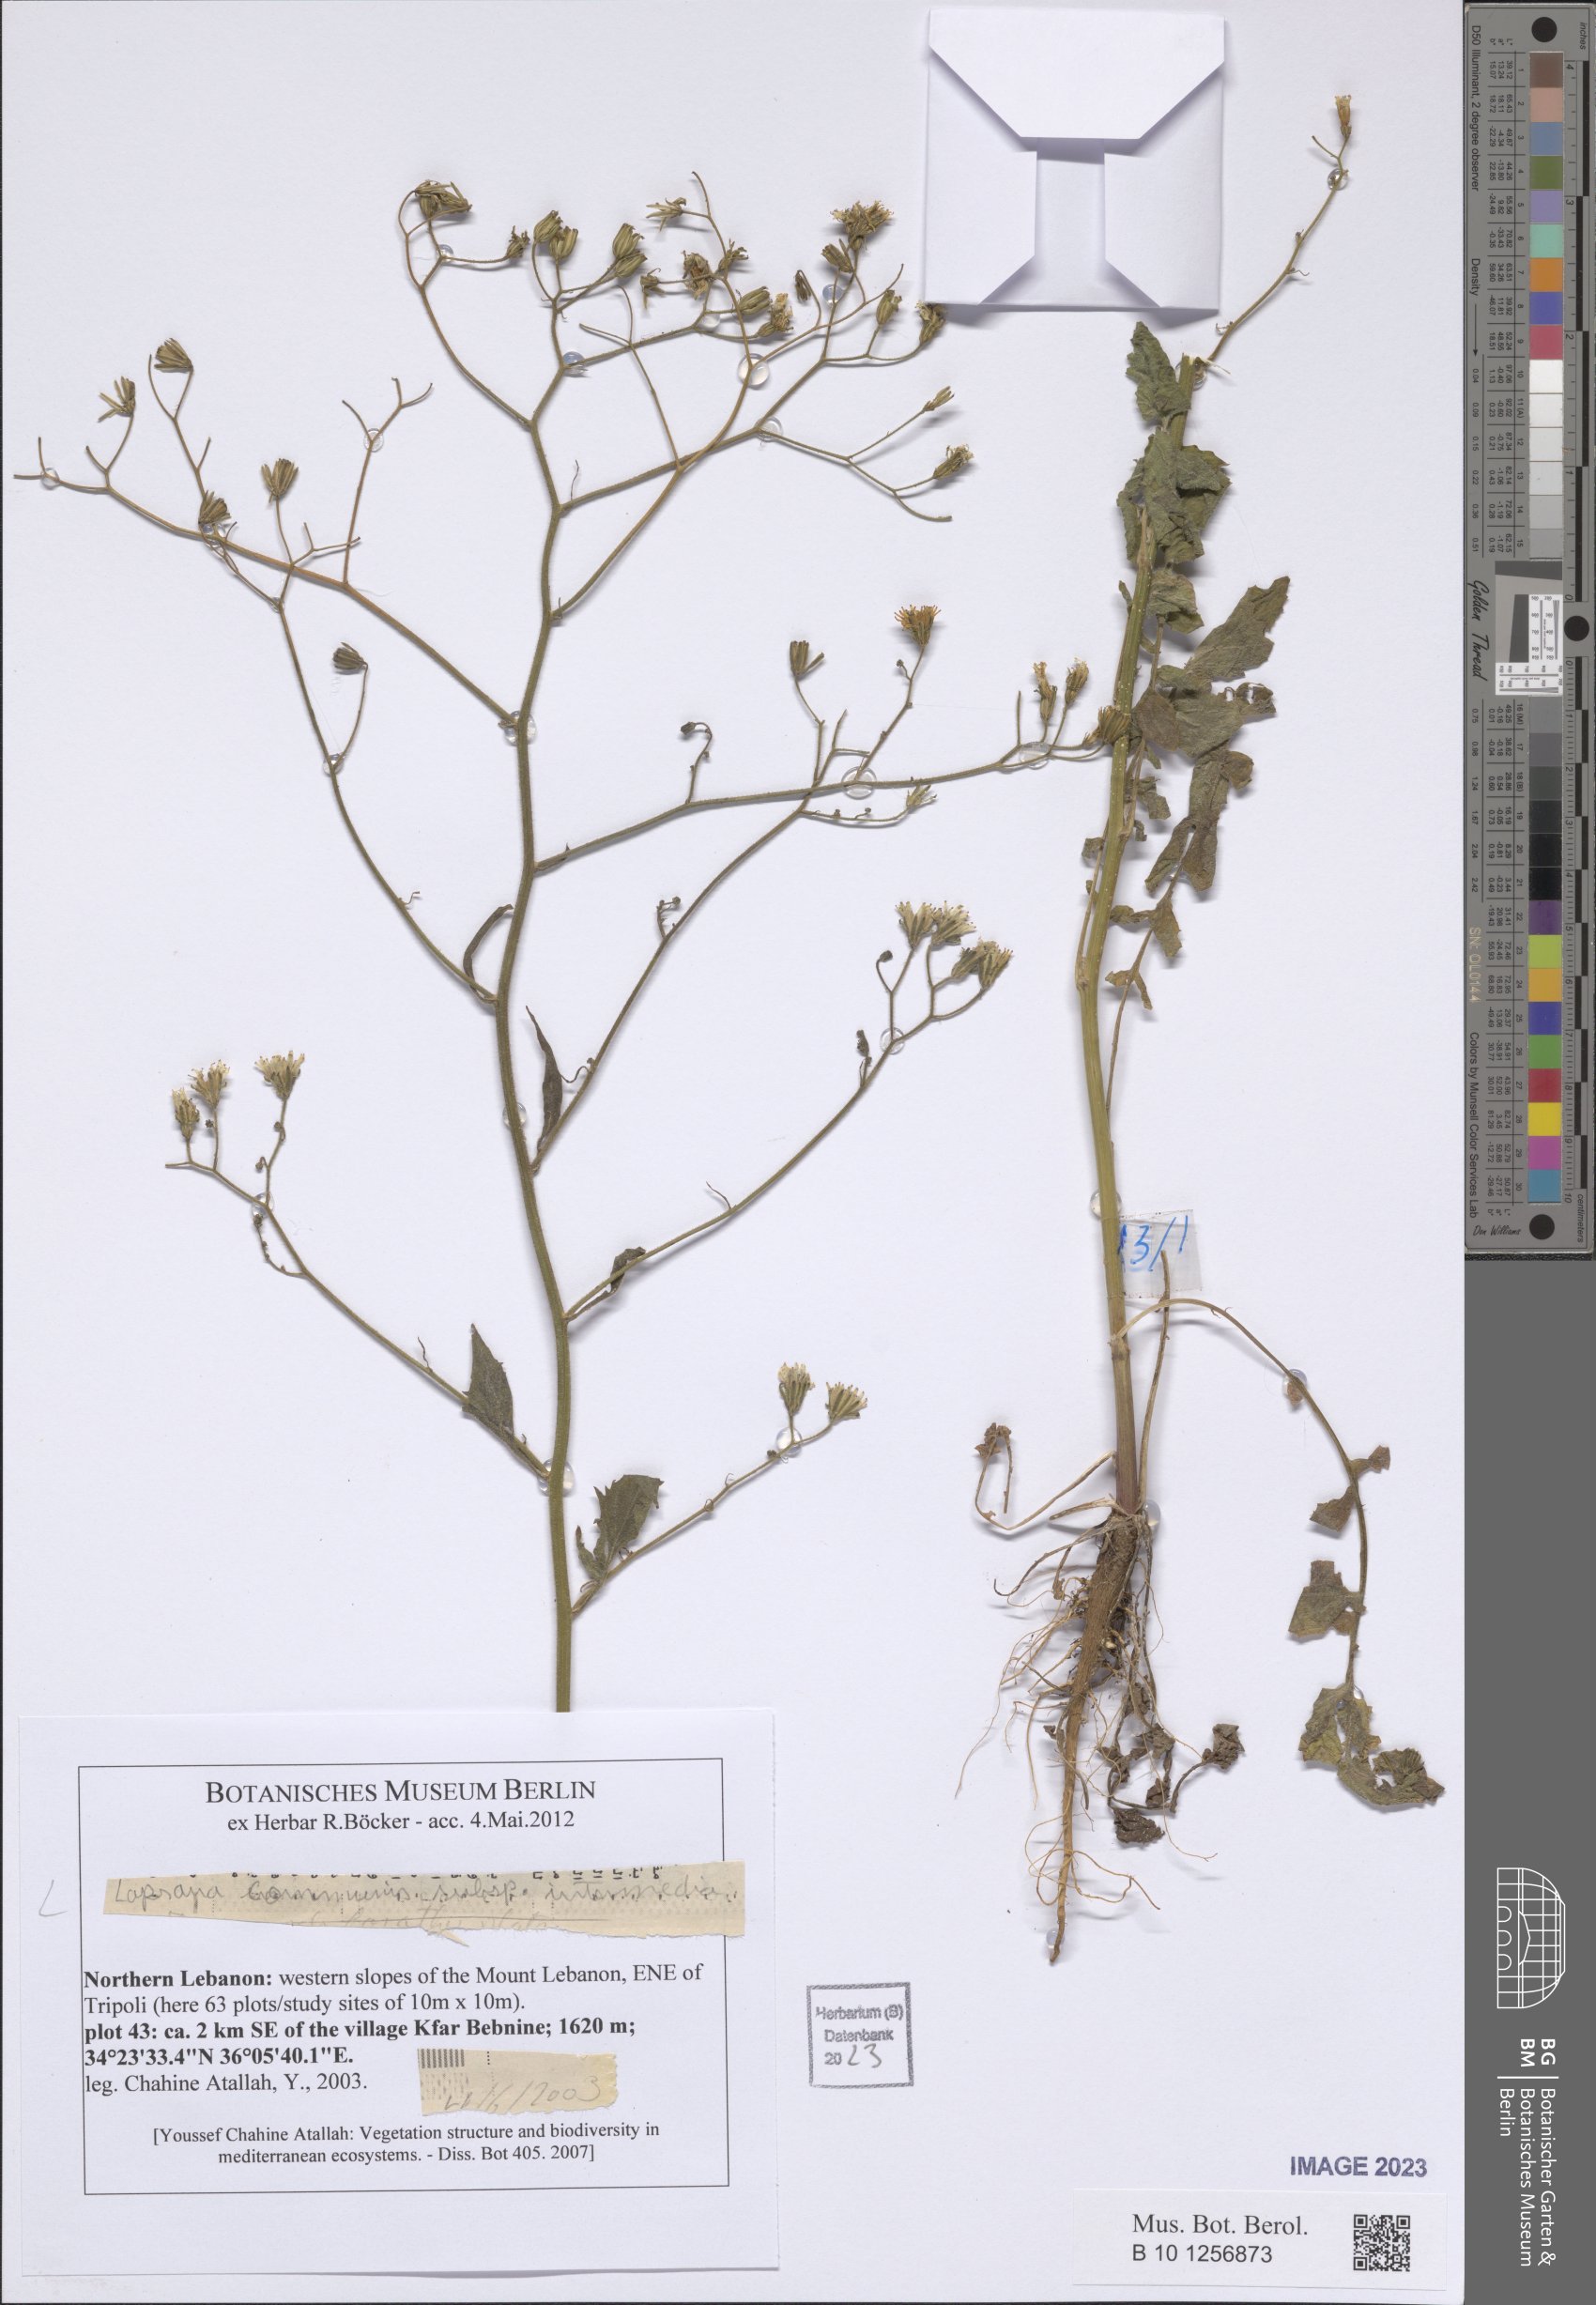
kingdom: Plantae
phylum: Tracheophyta
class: Magnoliopsida
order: Asterales
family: Asteraceae
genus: Lapsana
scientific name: Lapsana communis
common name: Nipplewort
